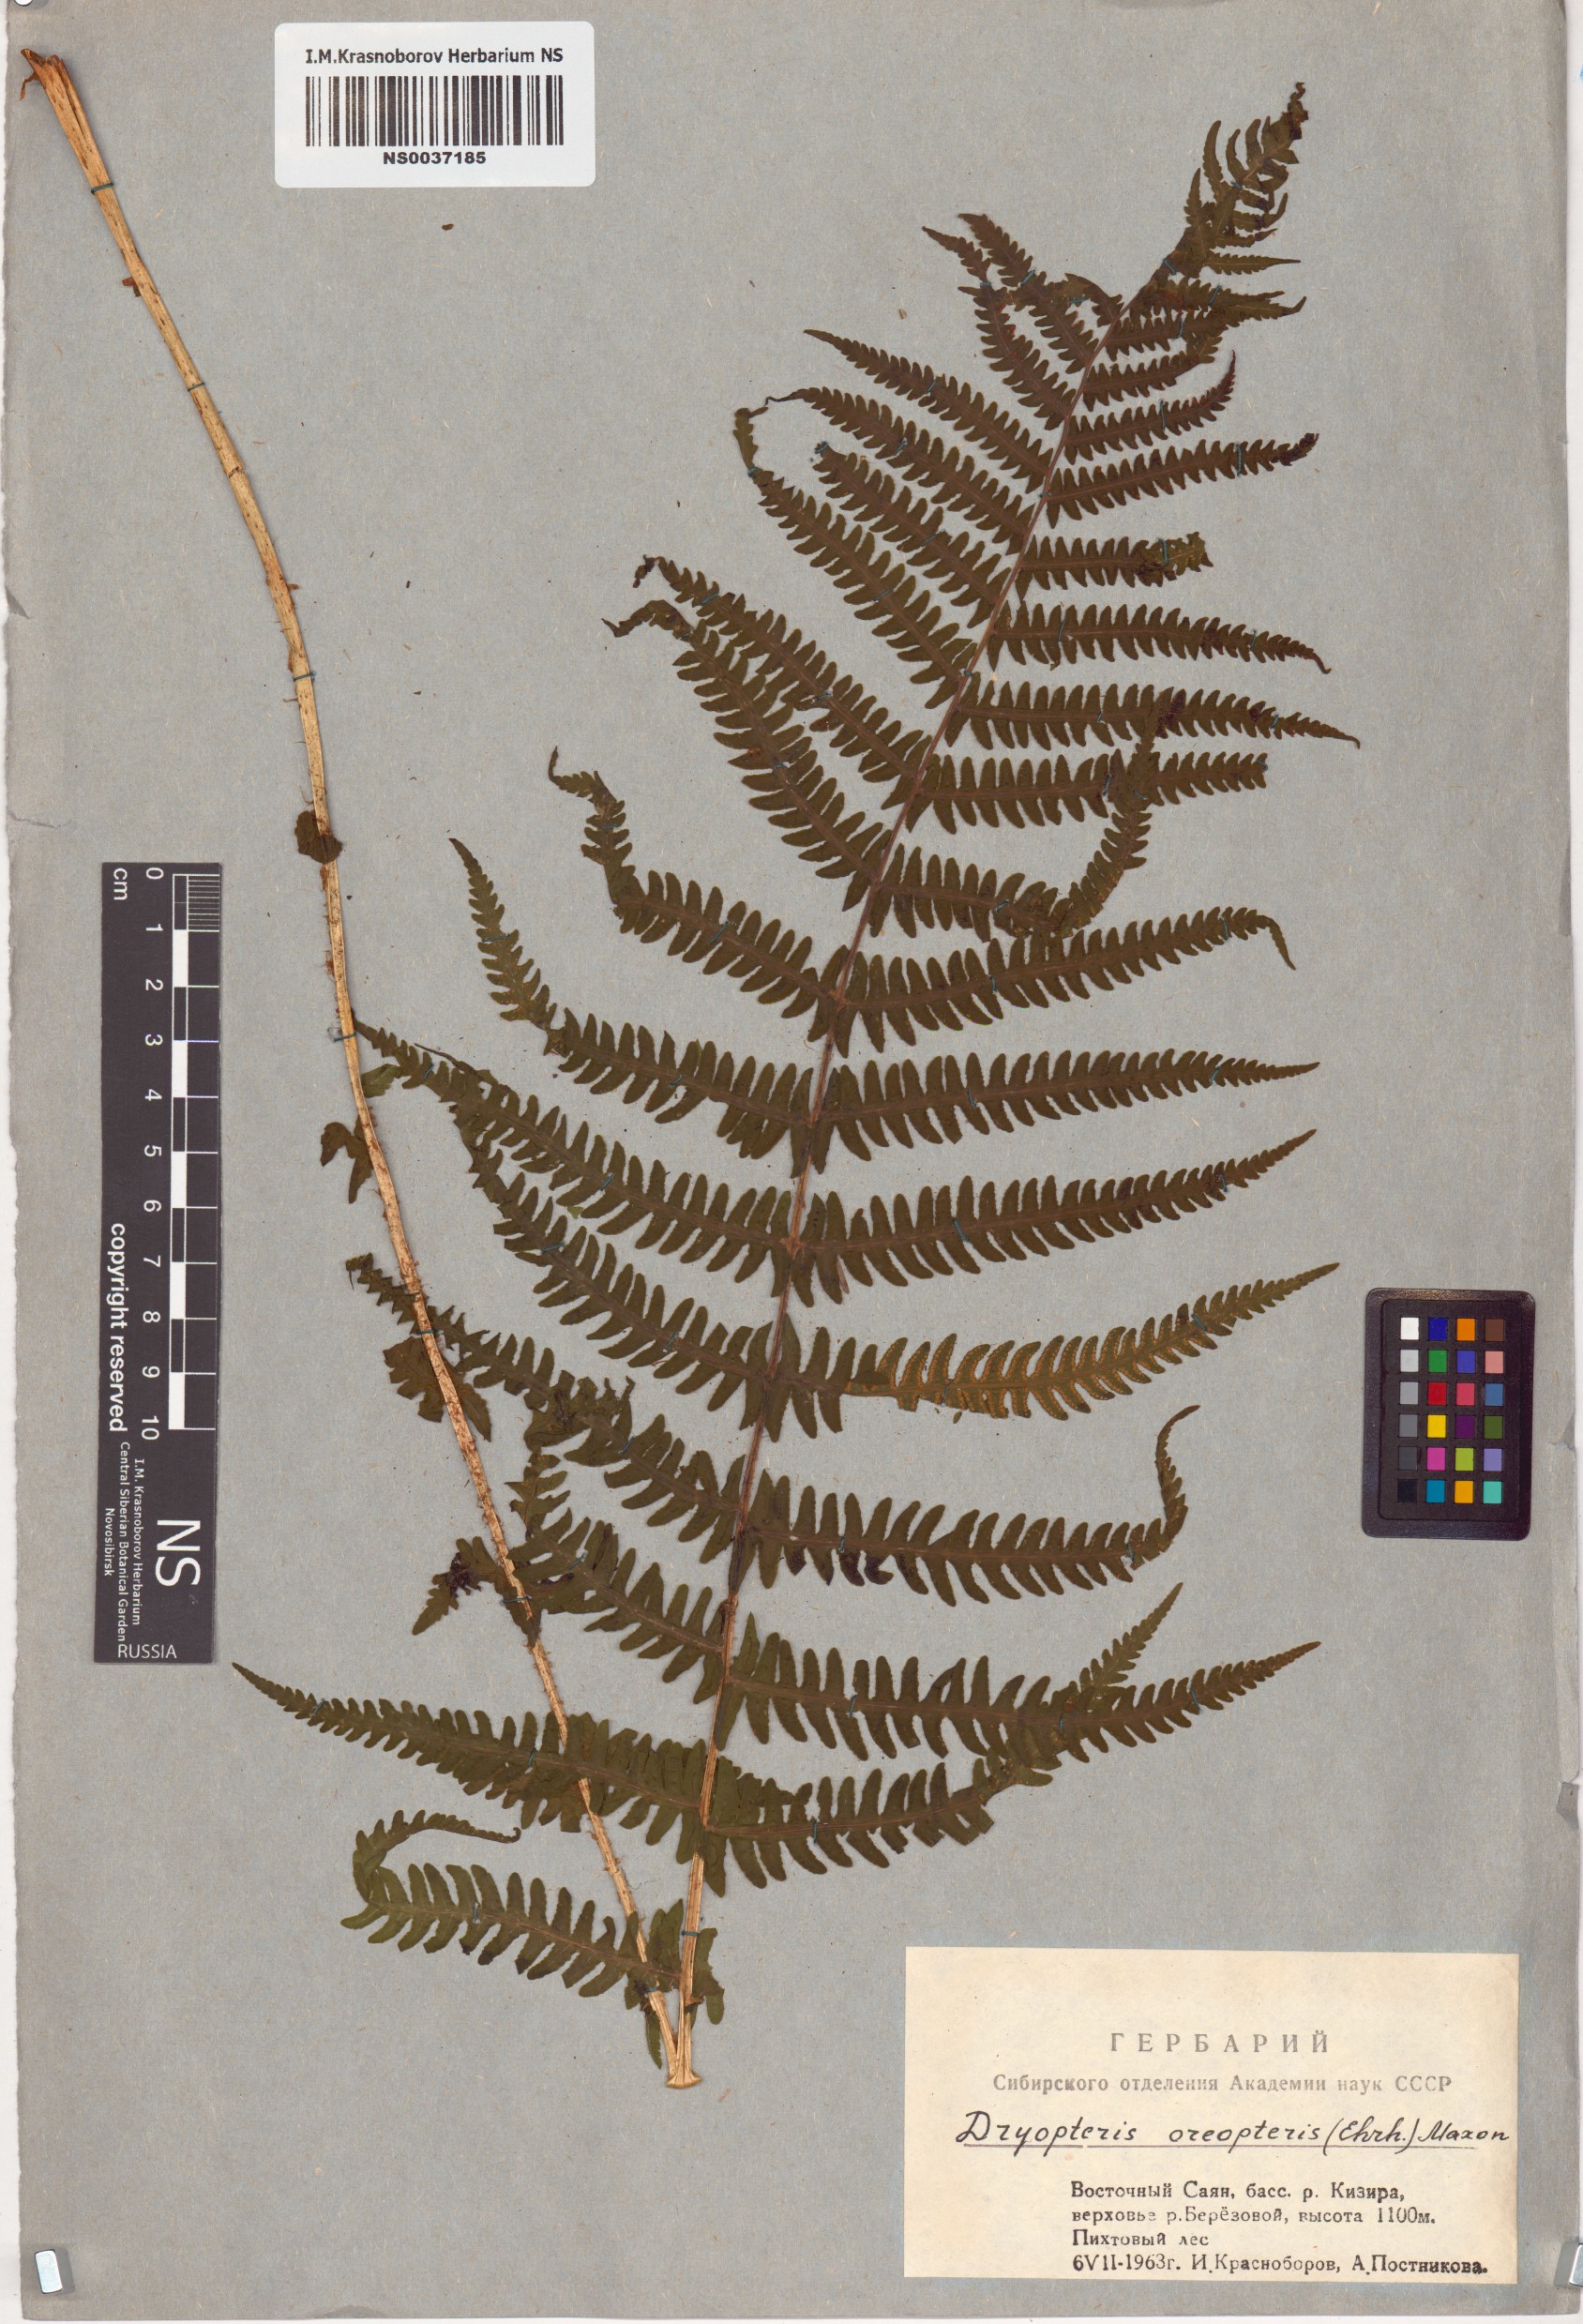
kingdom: Plantae
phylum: Tracheophyta
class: Polypodiopsida
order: Polypodiales
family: Thelypteridaceae
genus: Oreopteris
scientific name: Oreopteris limbosperma
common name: Lemon-scented fern
